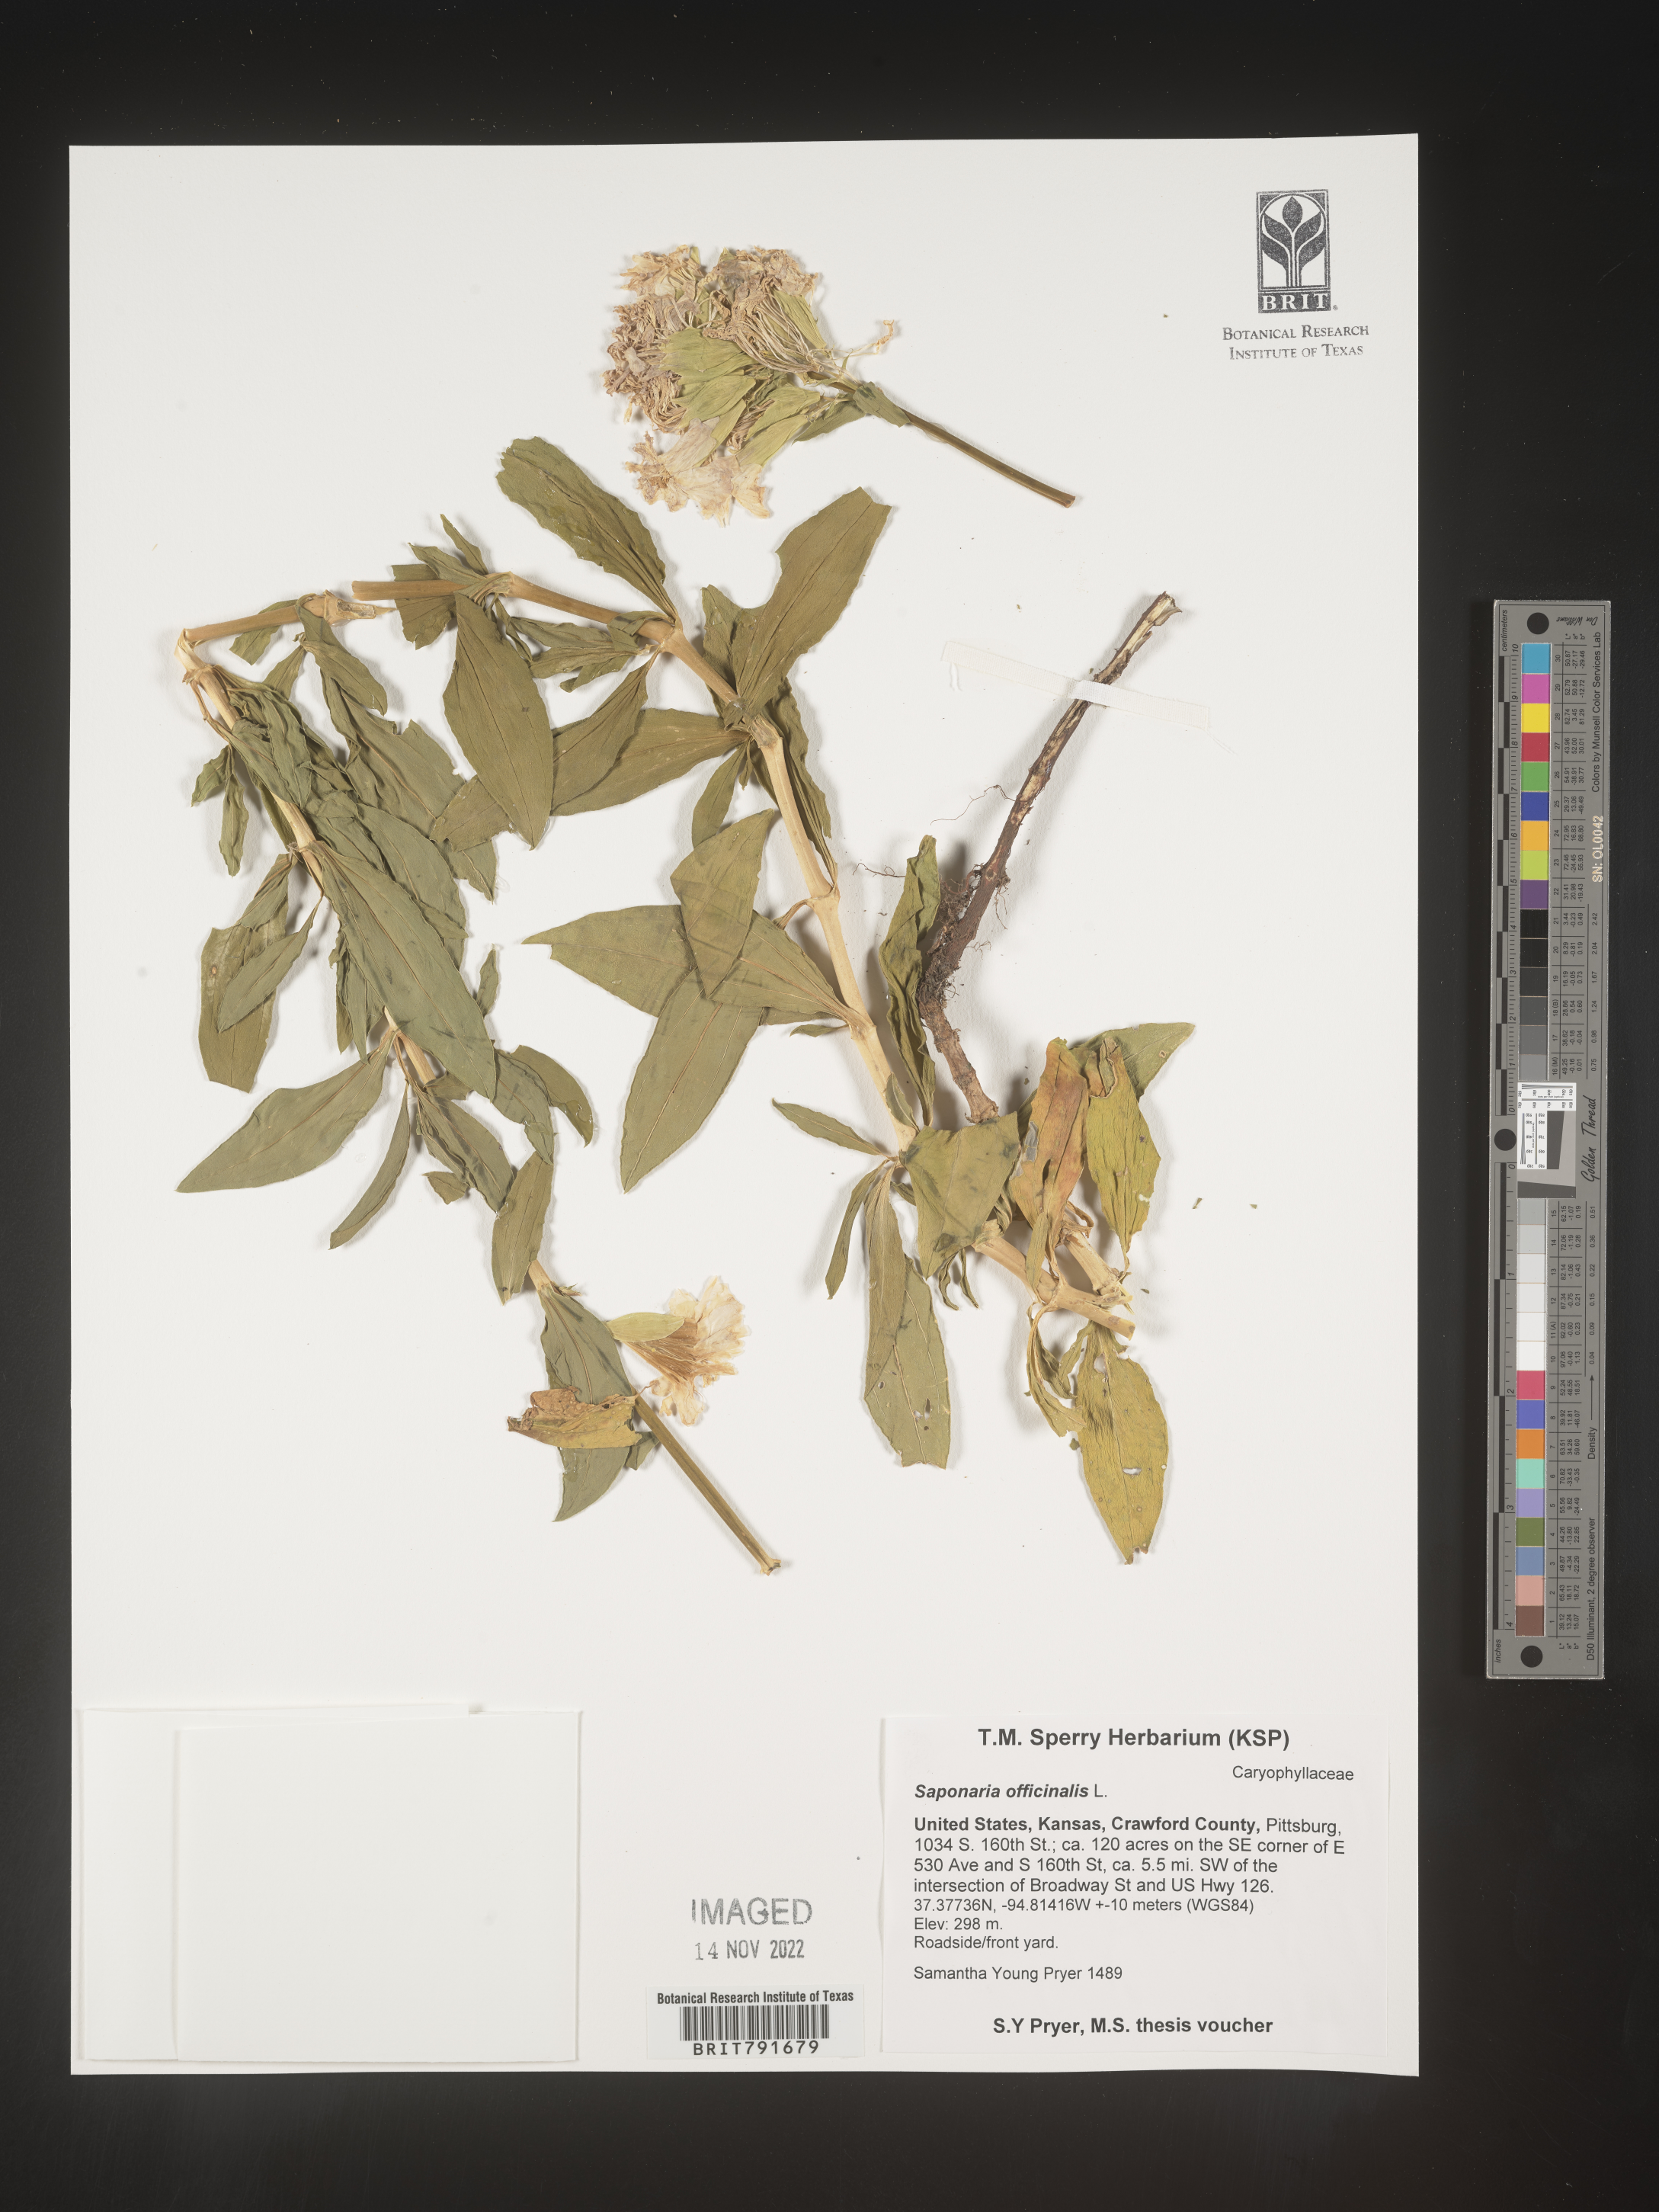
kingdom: Plantae
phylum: Tracheophyta
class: Magnoliopsida
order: Caryophyllales
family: Caryophyllaceae
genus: Saponaria
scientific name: Saponaria officinalis
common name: Soapwort
